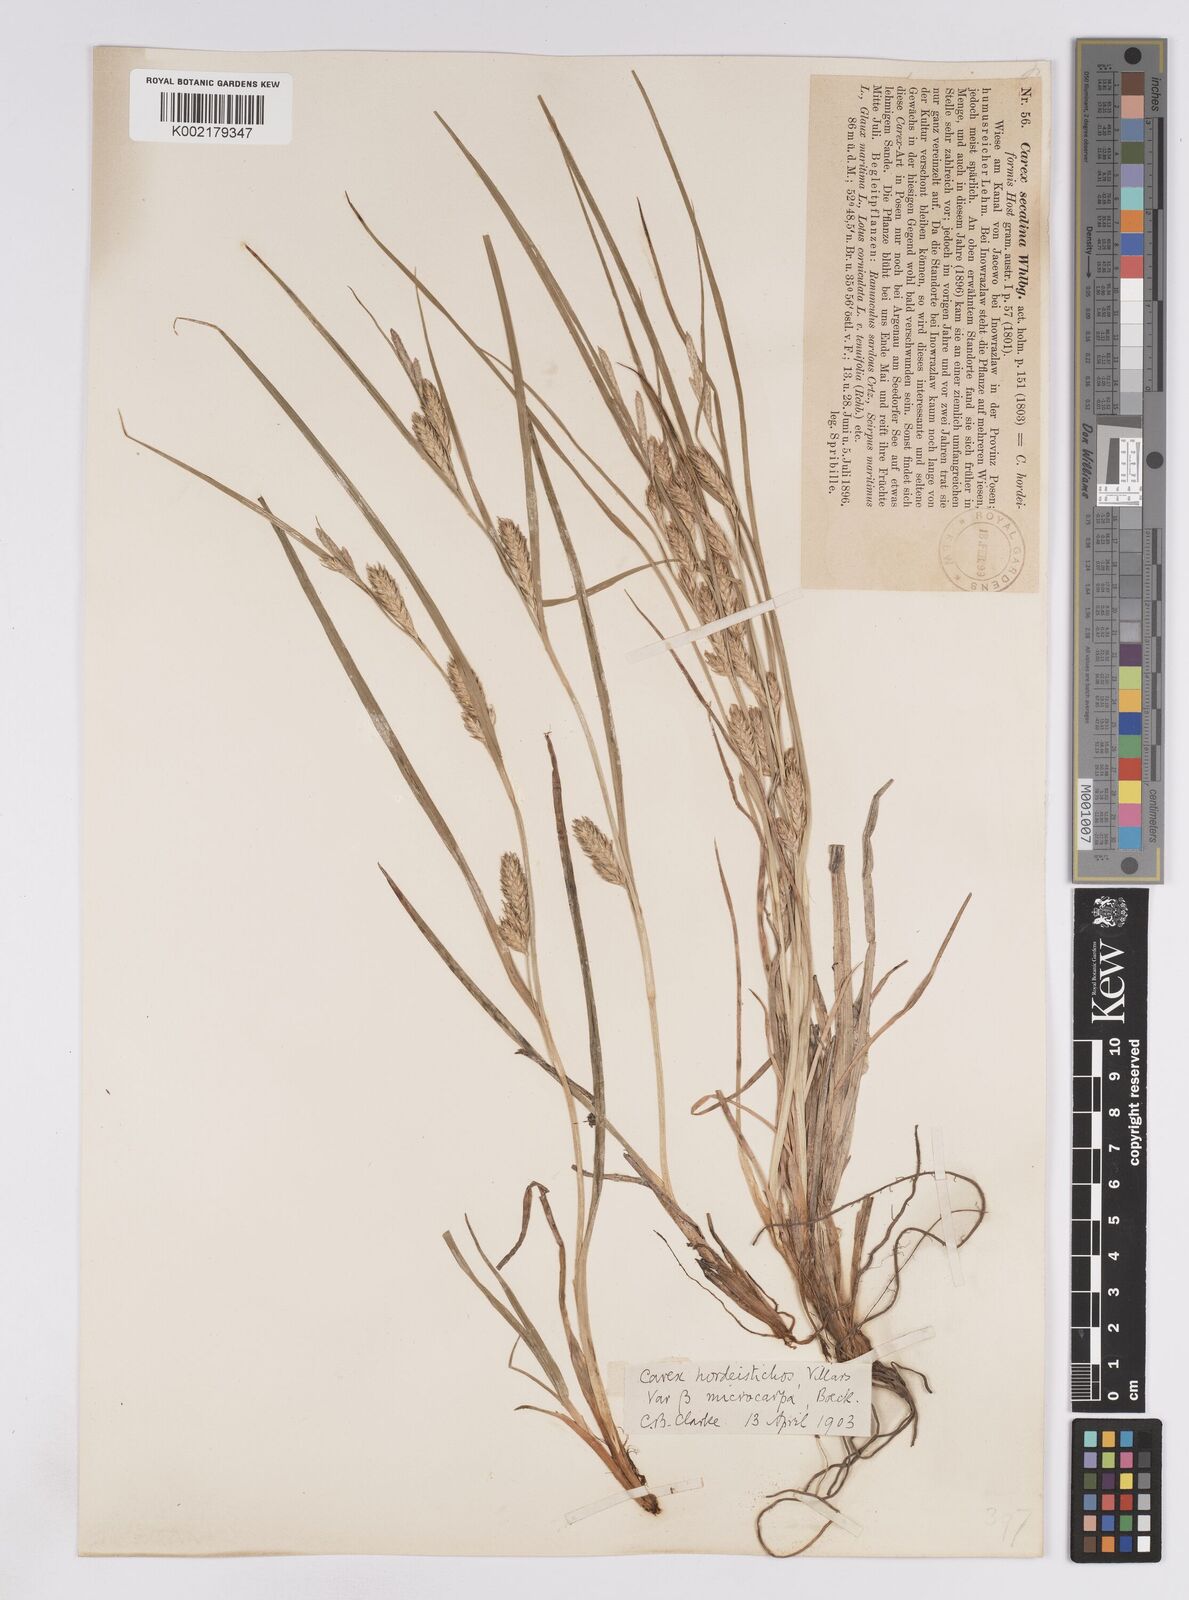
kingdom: Plantae
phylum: Tracheophyta
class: Liliopsida
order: Poales
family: Cyperaceae
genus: Carex
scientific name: Carex hordeistichos
